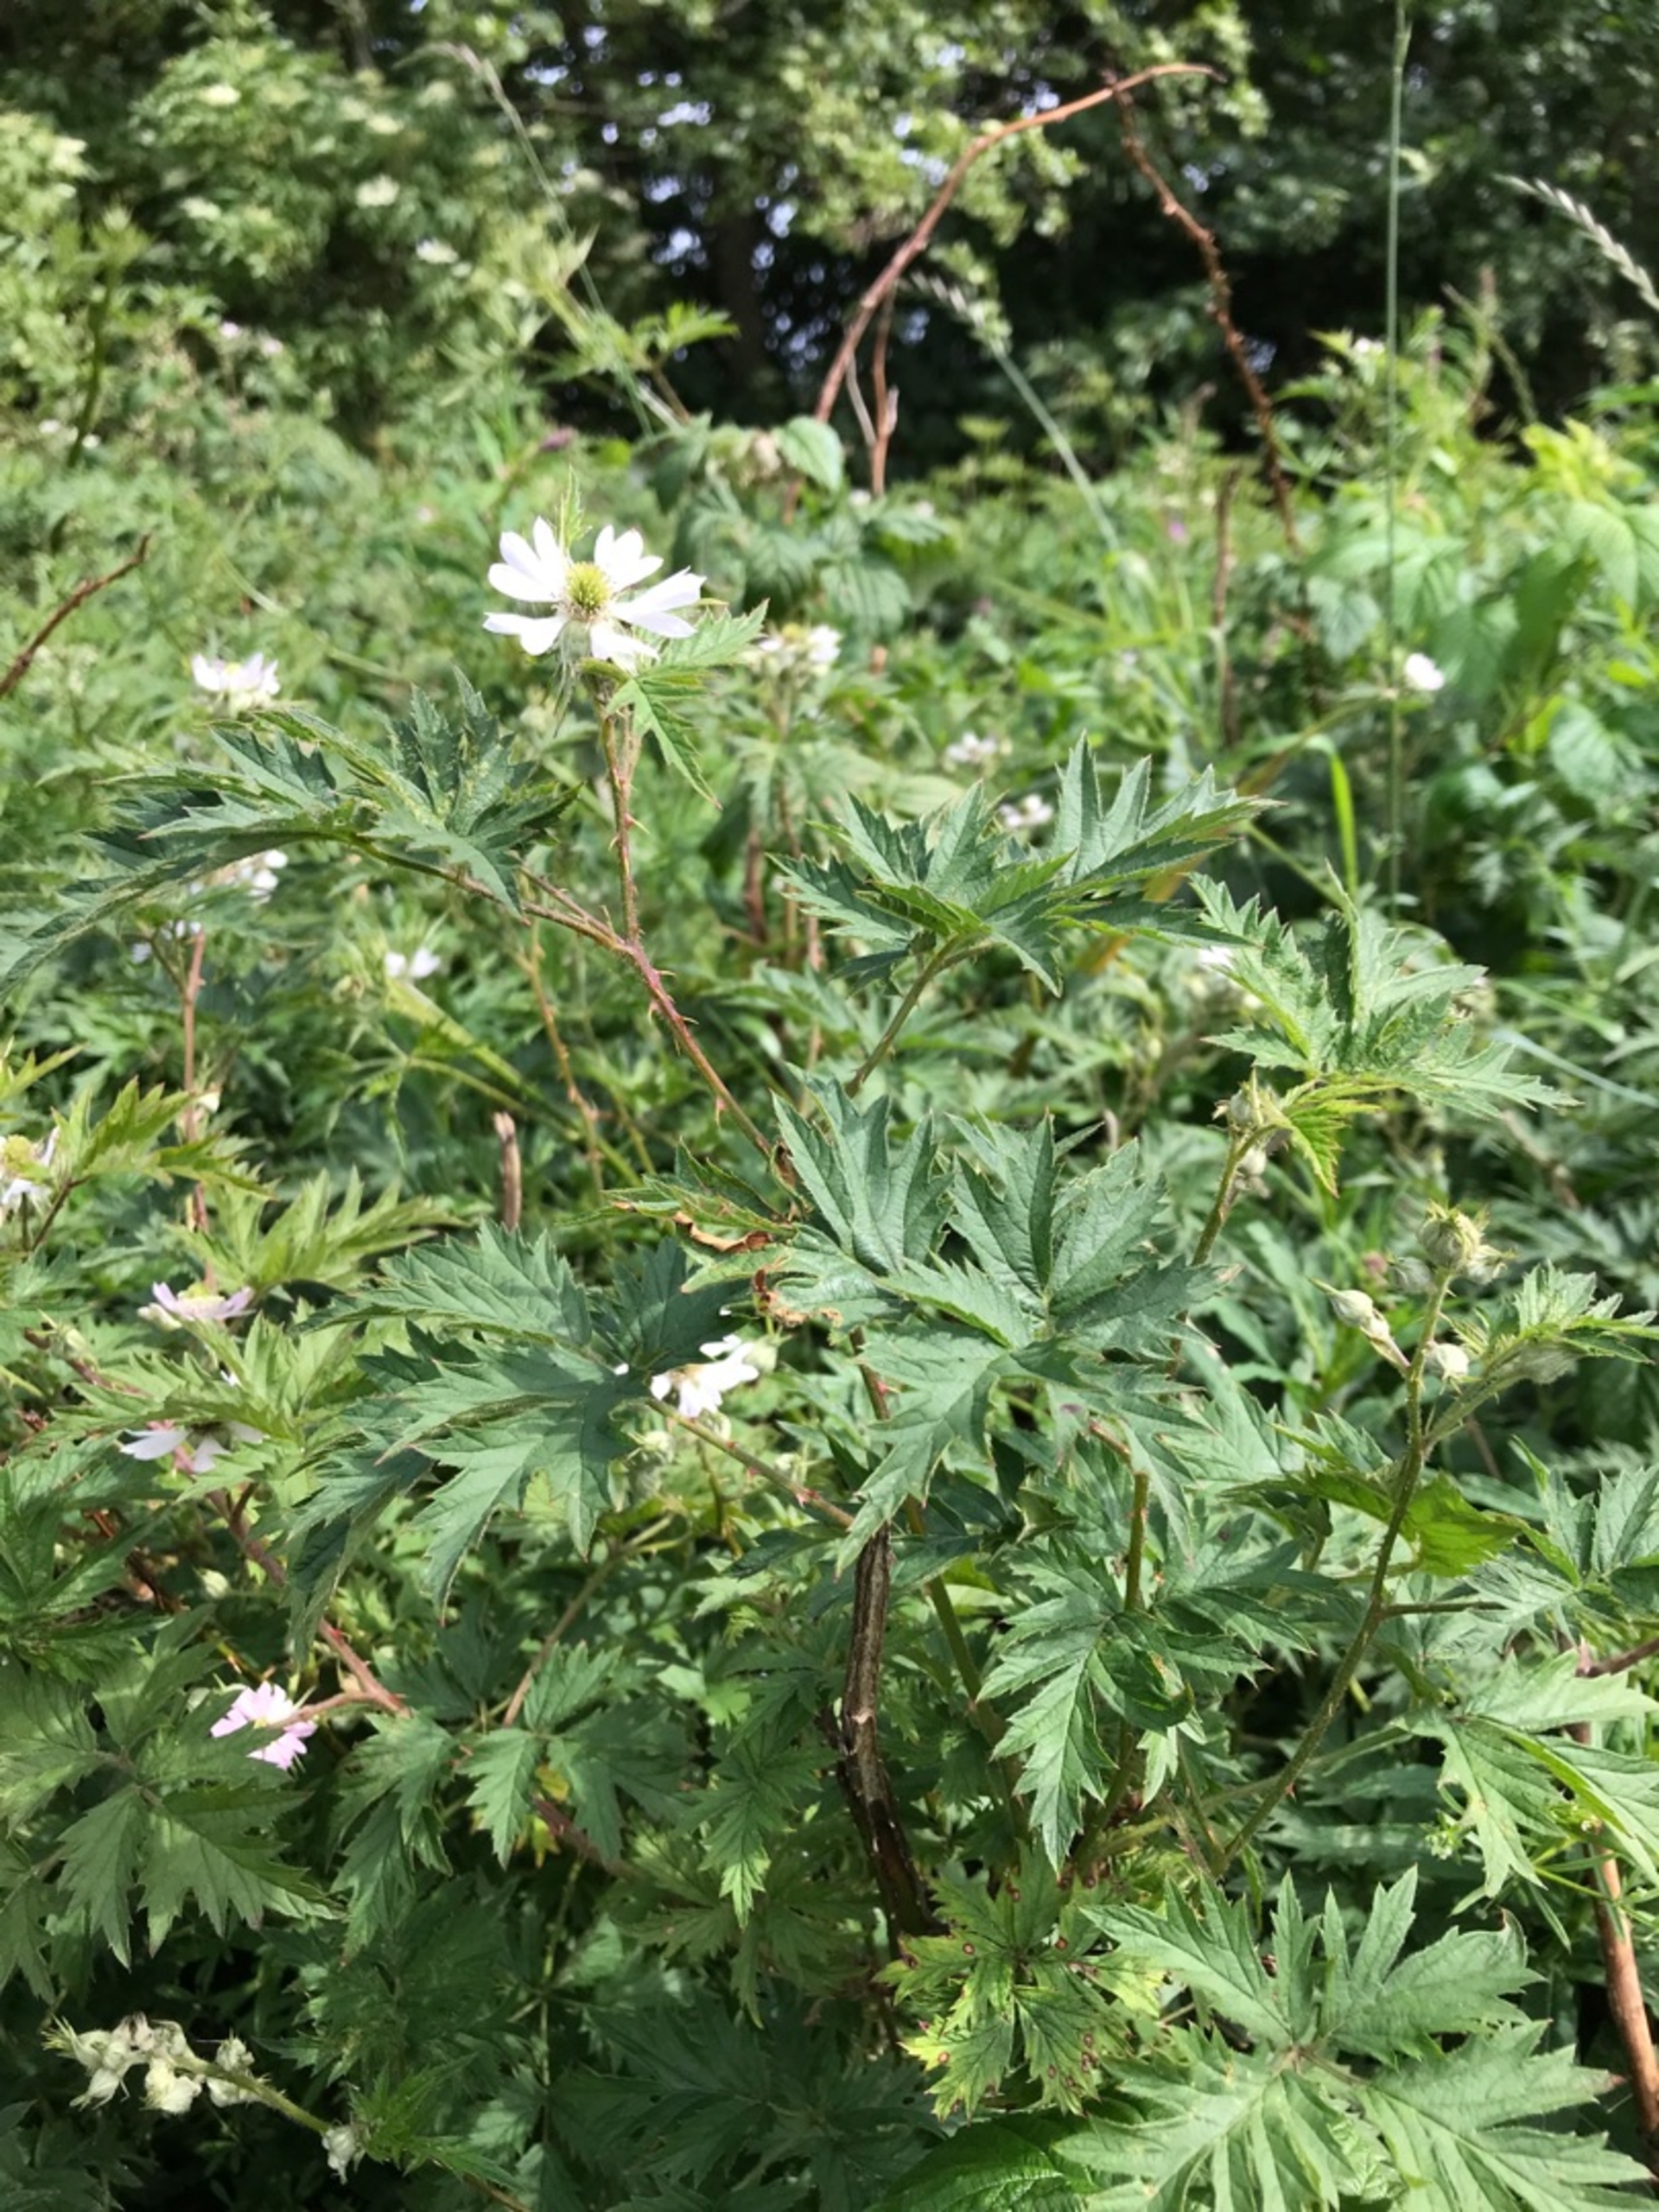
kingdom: Plantae
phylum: Tracheophyta
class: Magnoliopsida
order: Rosales
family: Rosaceae
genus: Rubus
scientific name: Rubus laciniatus
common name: Fliget brombær
